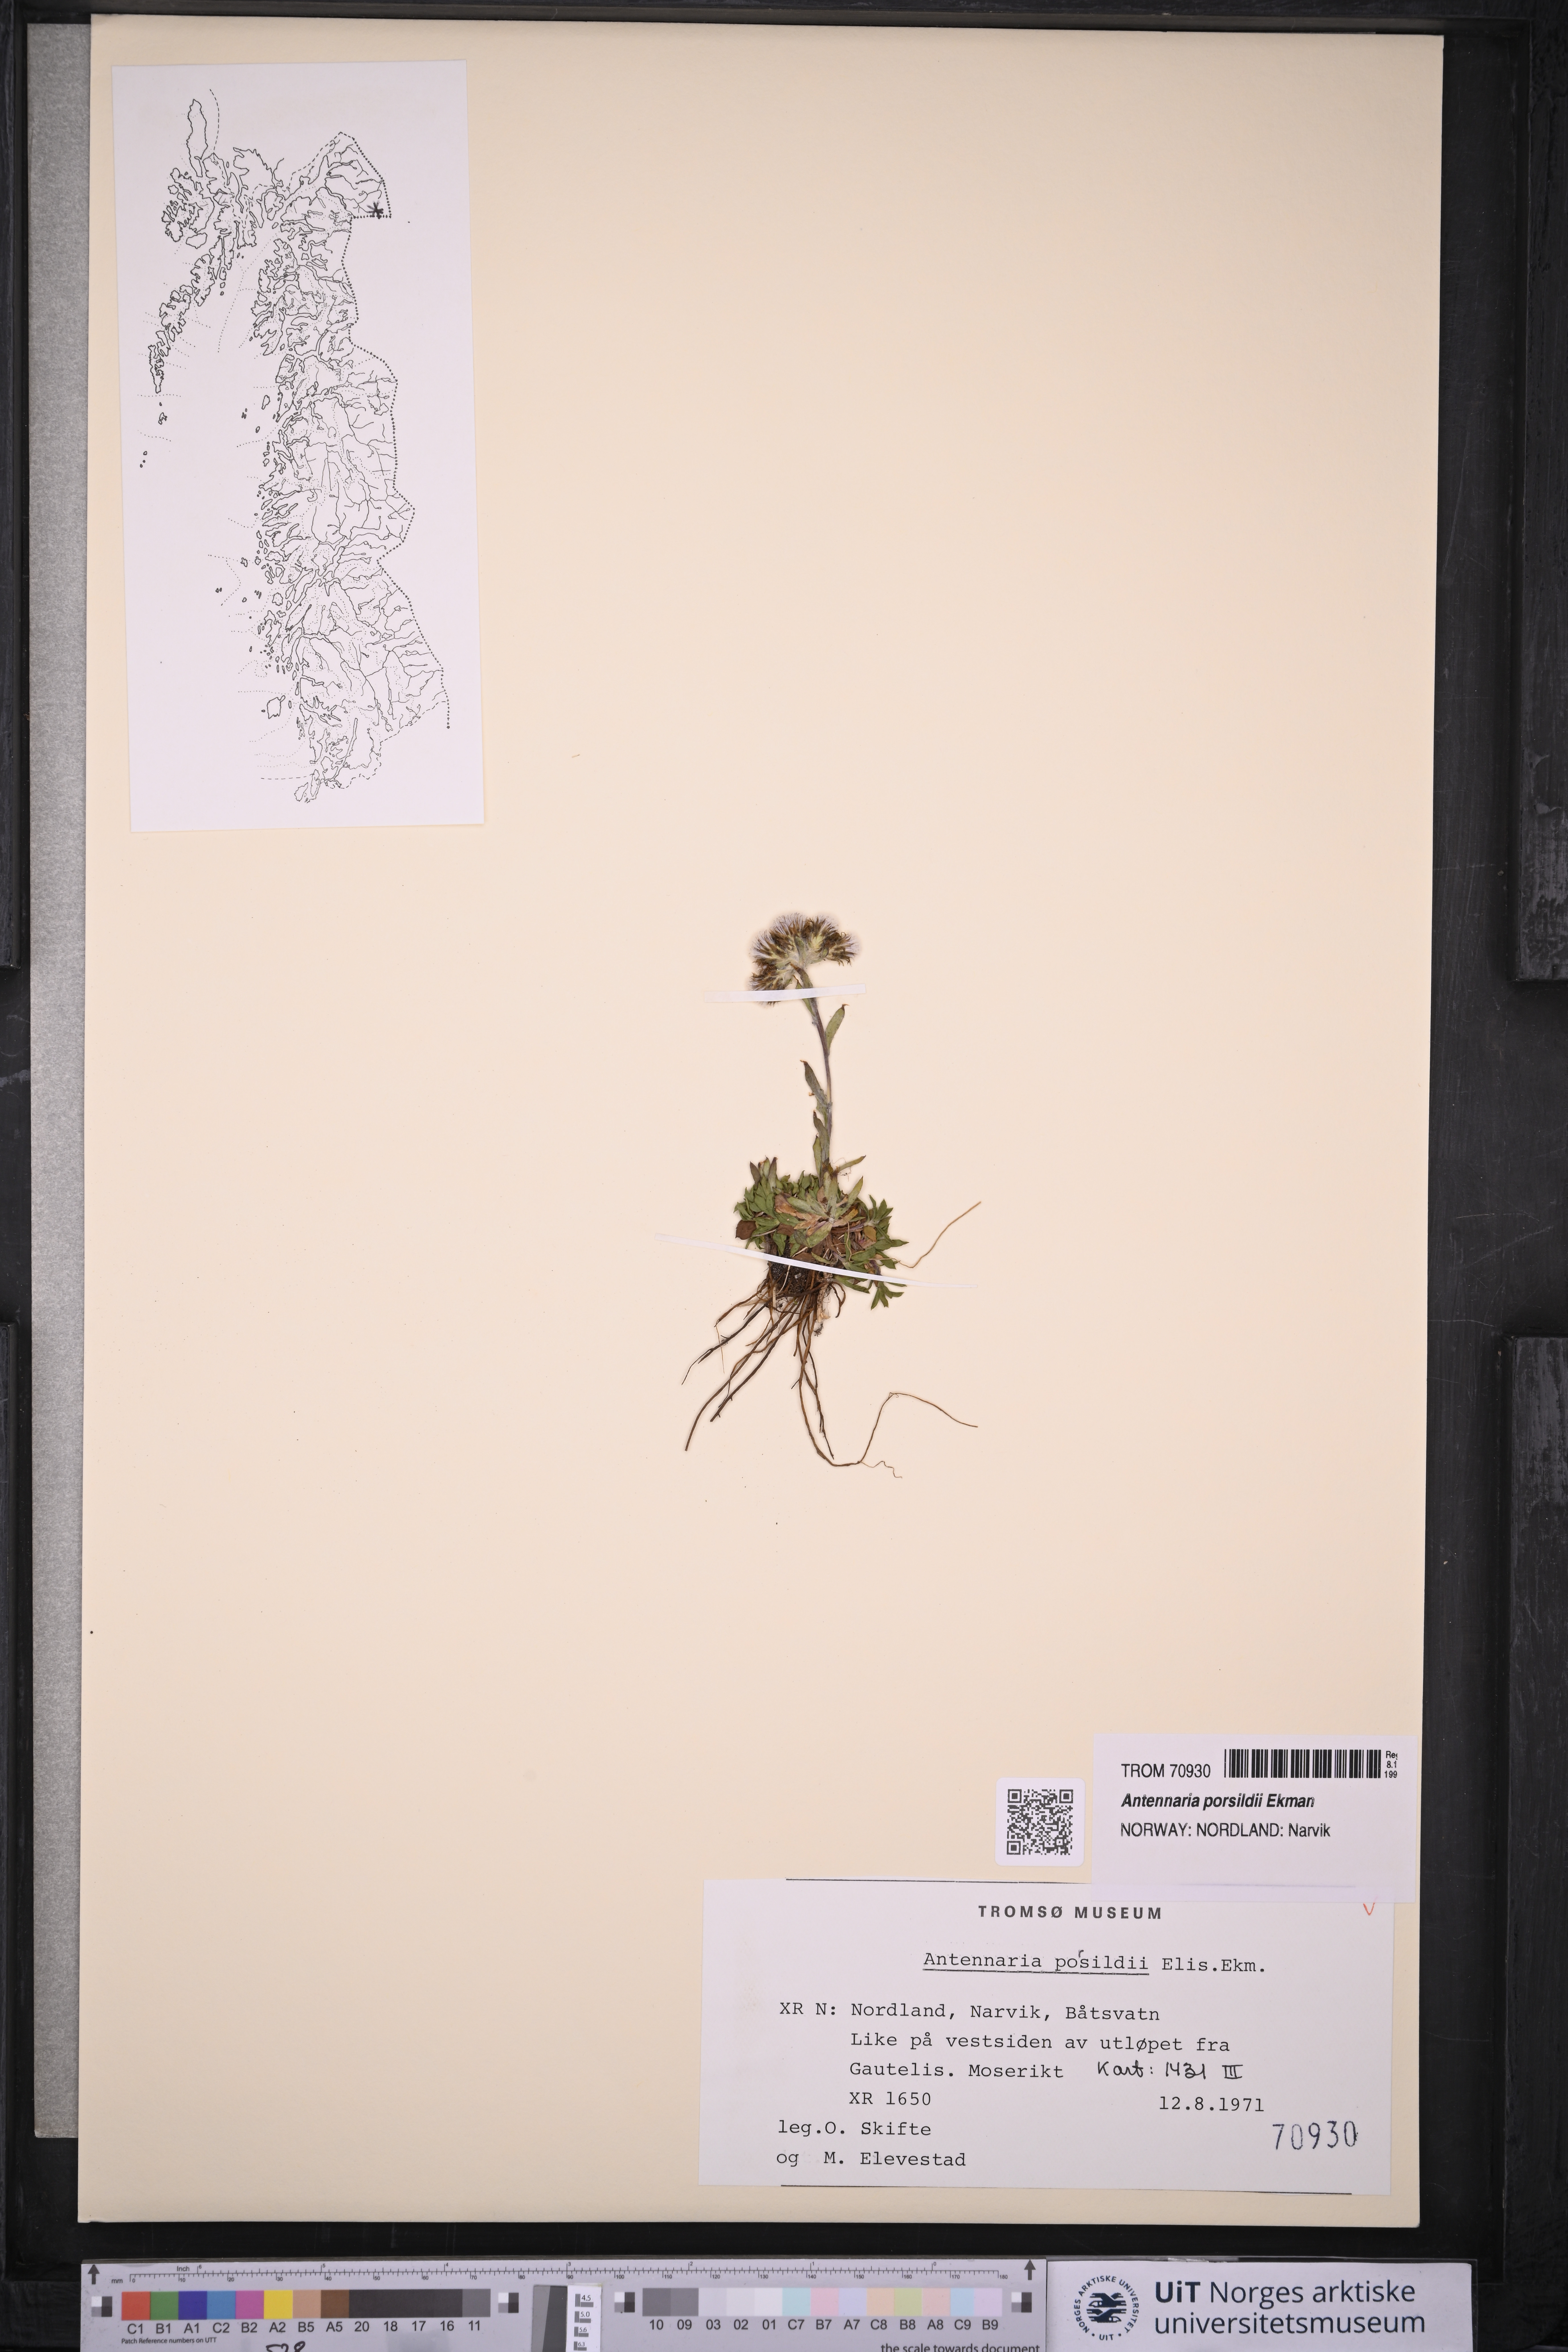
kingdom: Plantae
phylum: Tracheophyta
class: Magnoliopsida
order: Asterales
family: Asteraceae
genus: Antennaria
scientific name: Antennaria porsildii
